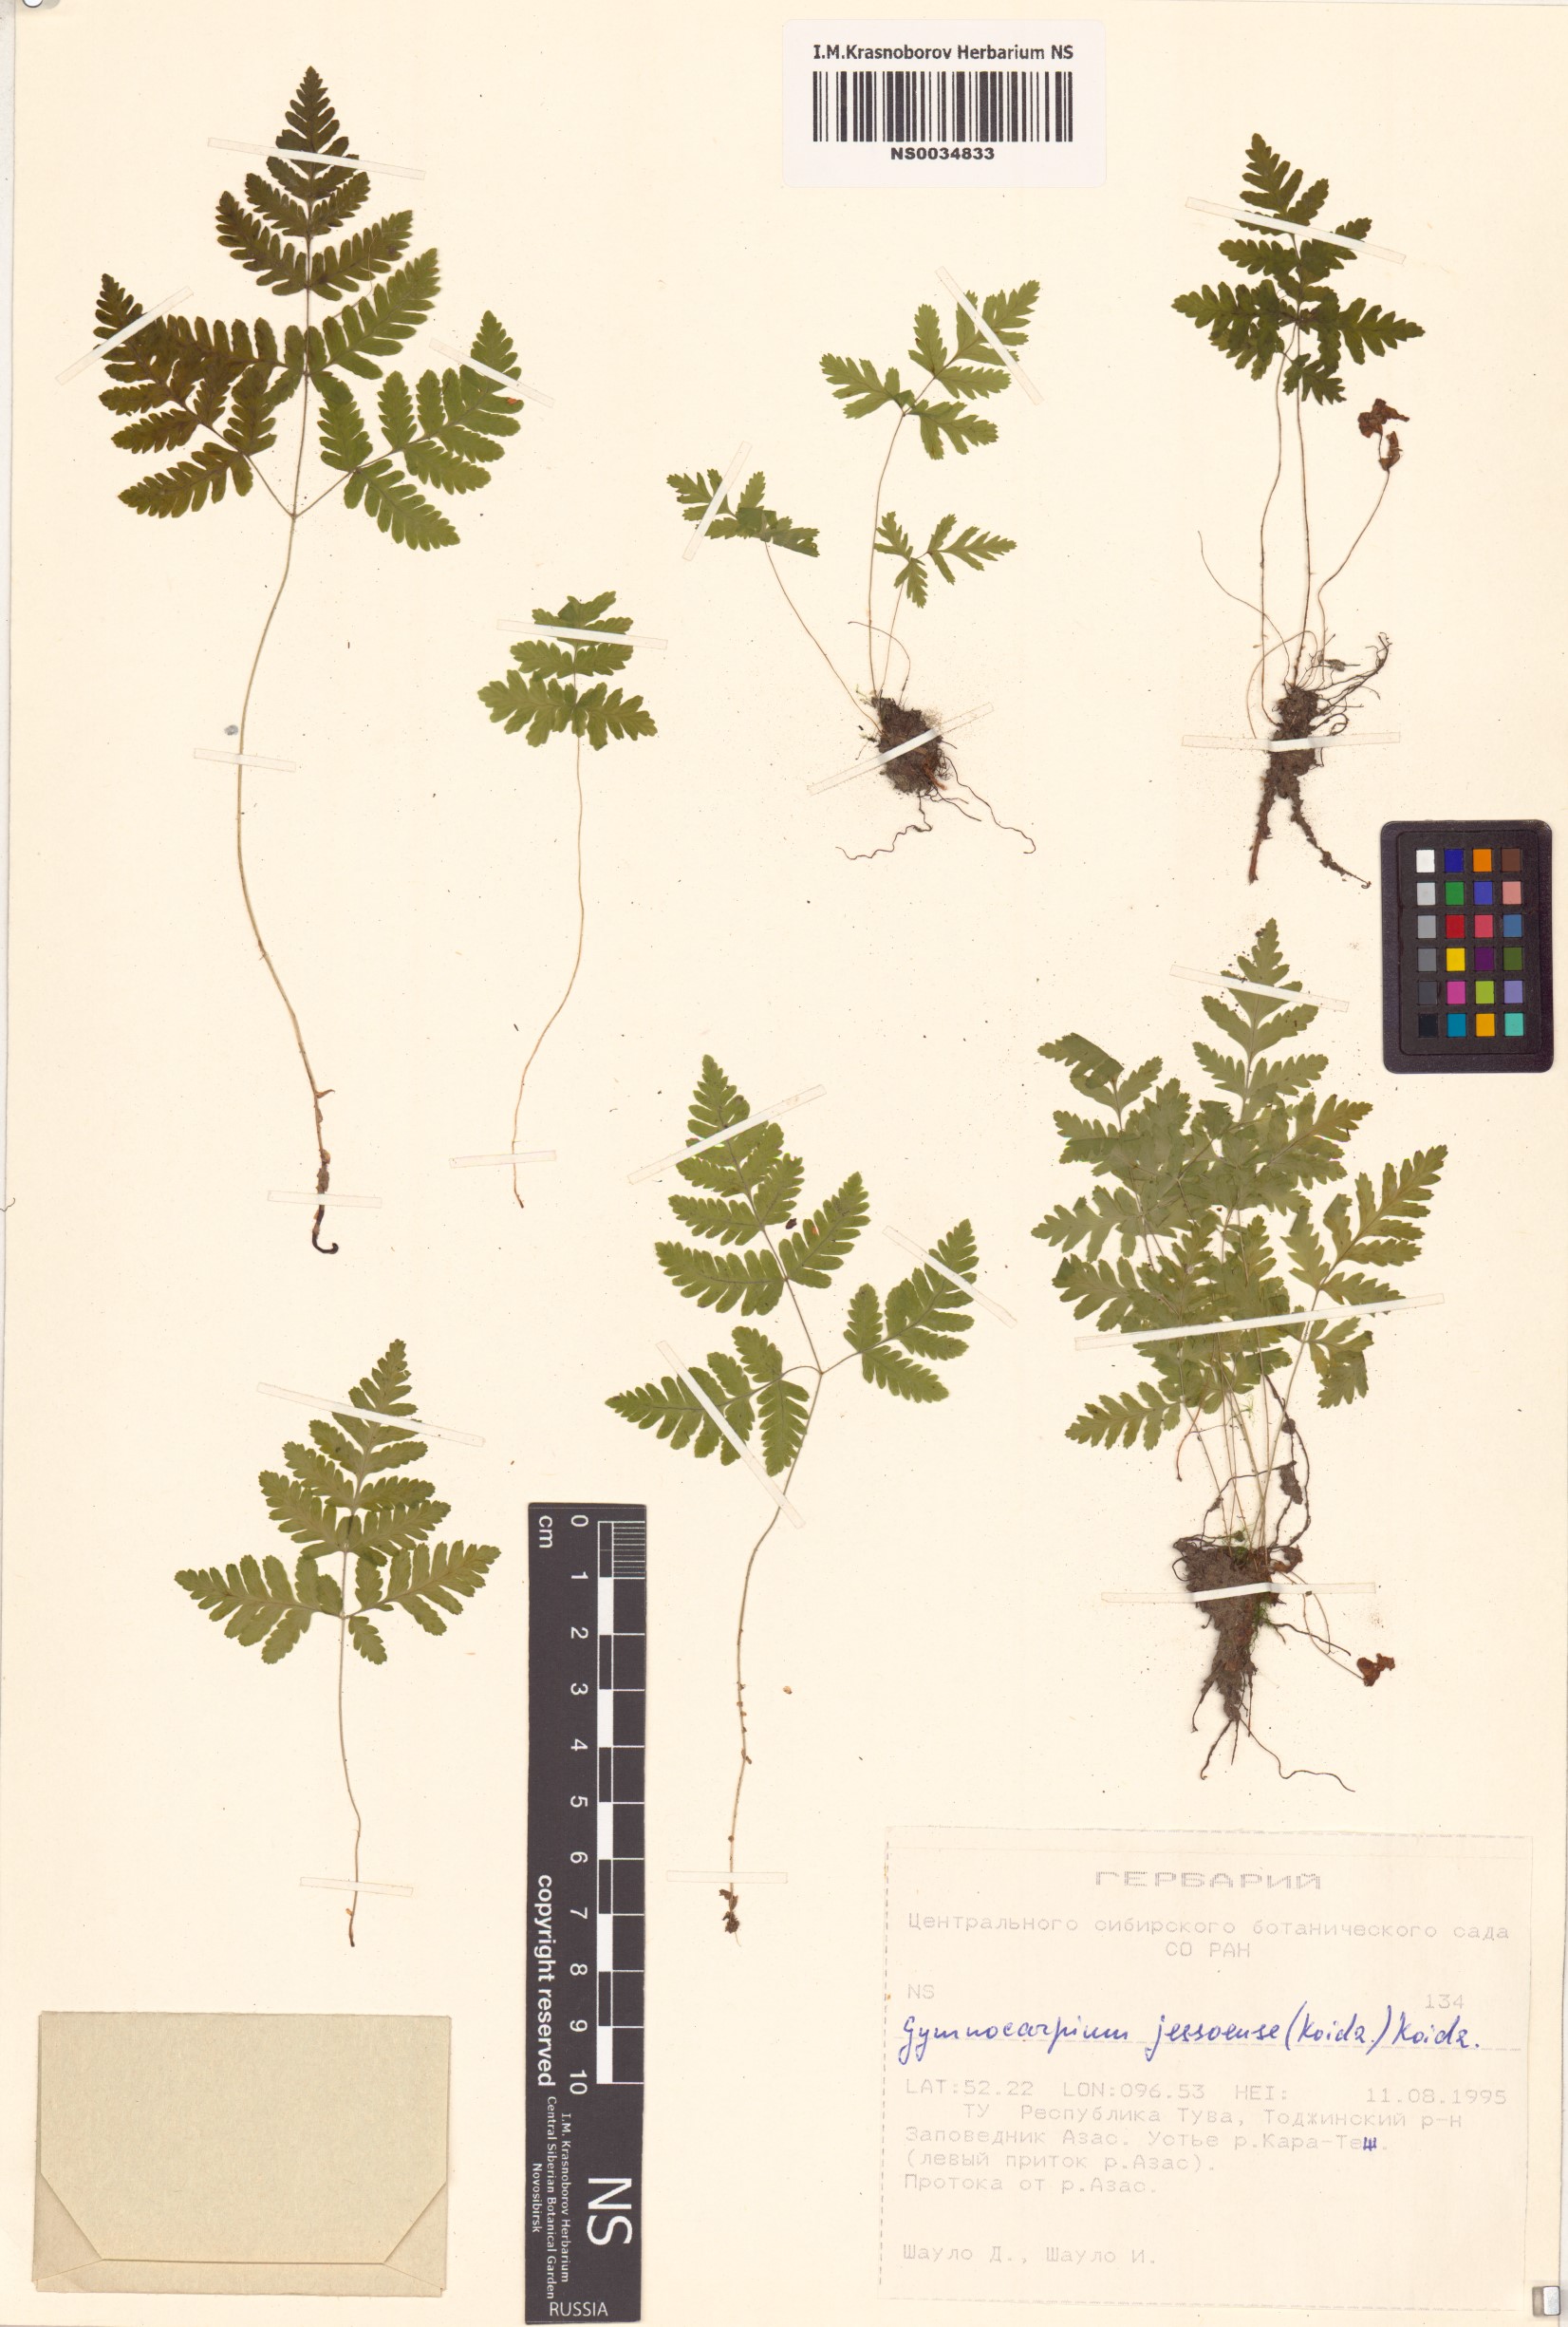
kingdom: Plantae
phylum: Tracheophyta
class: Polypodiopsida
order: Polypodiales
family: Cystopteridaceae
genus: Gymnocarpium
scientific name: Gymnocarpium jessoense
